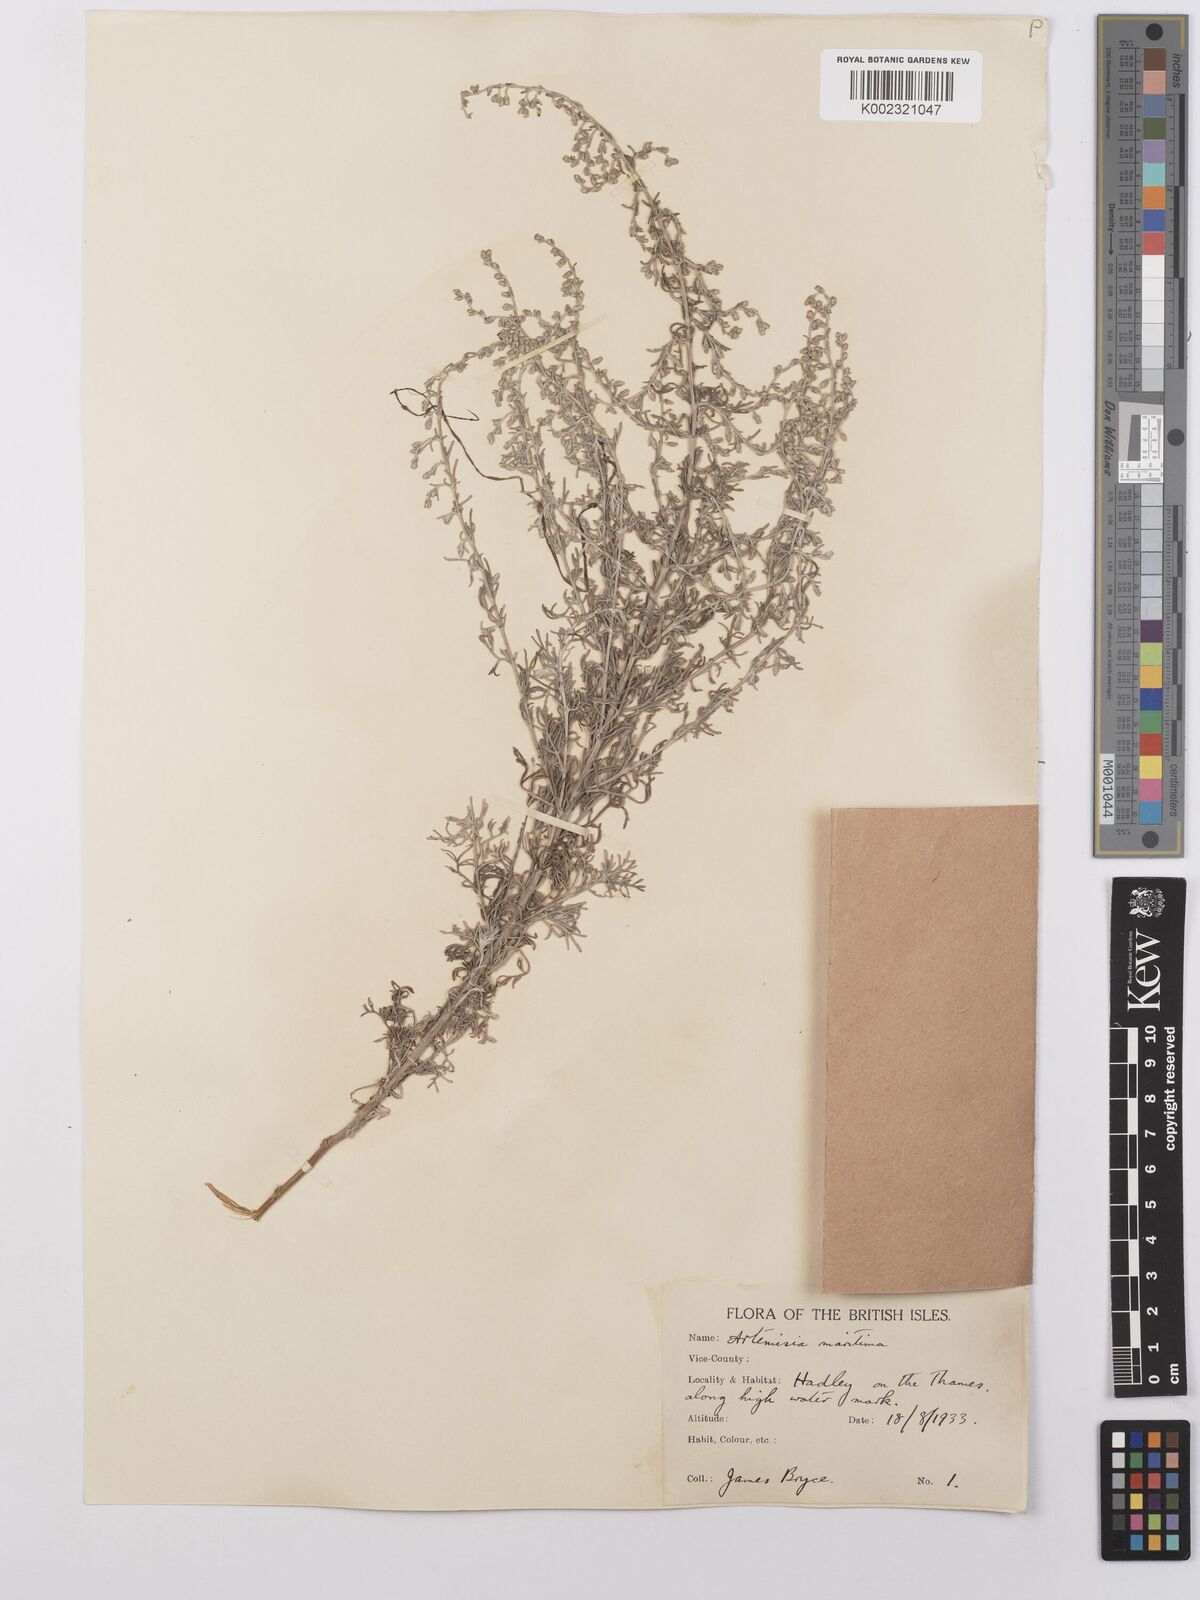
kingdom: Plantae
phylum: Tracheophyta
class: Magnoliopsida
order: Asterales
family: Asteraceae
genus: Artemisia
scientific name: Artemisia maritima
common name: Wormseed
